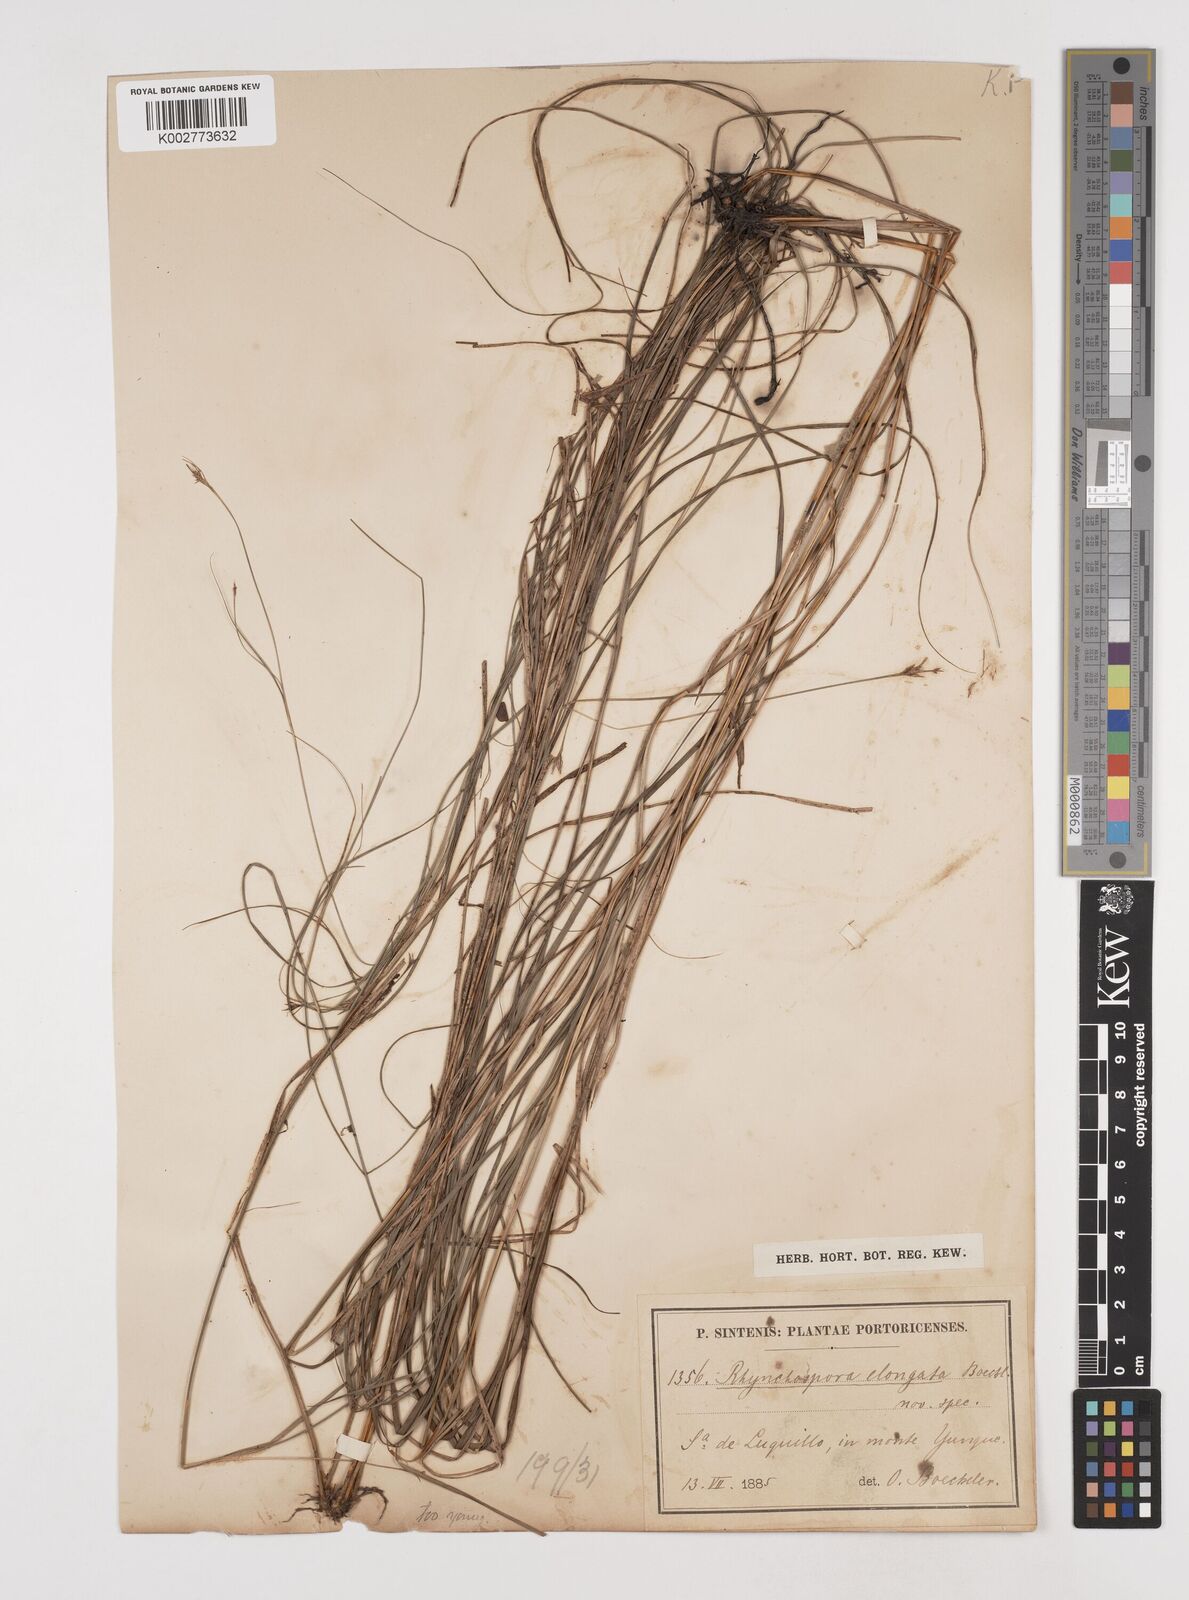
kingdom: Plantae
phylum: Tracheophyta
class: Liliopsida
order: Poales
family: Cyperaceae
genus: Rhynchospora
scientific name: Rhynchospora biflora
